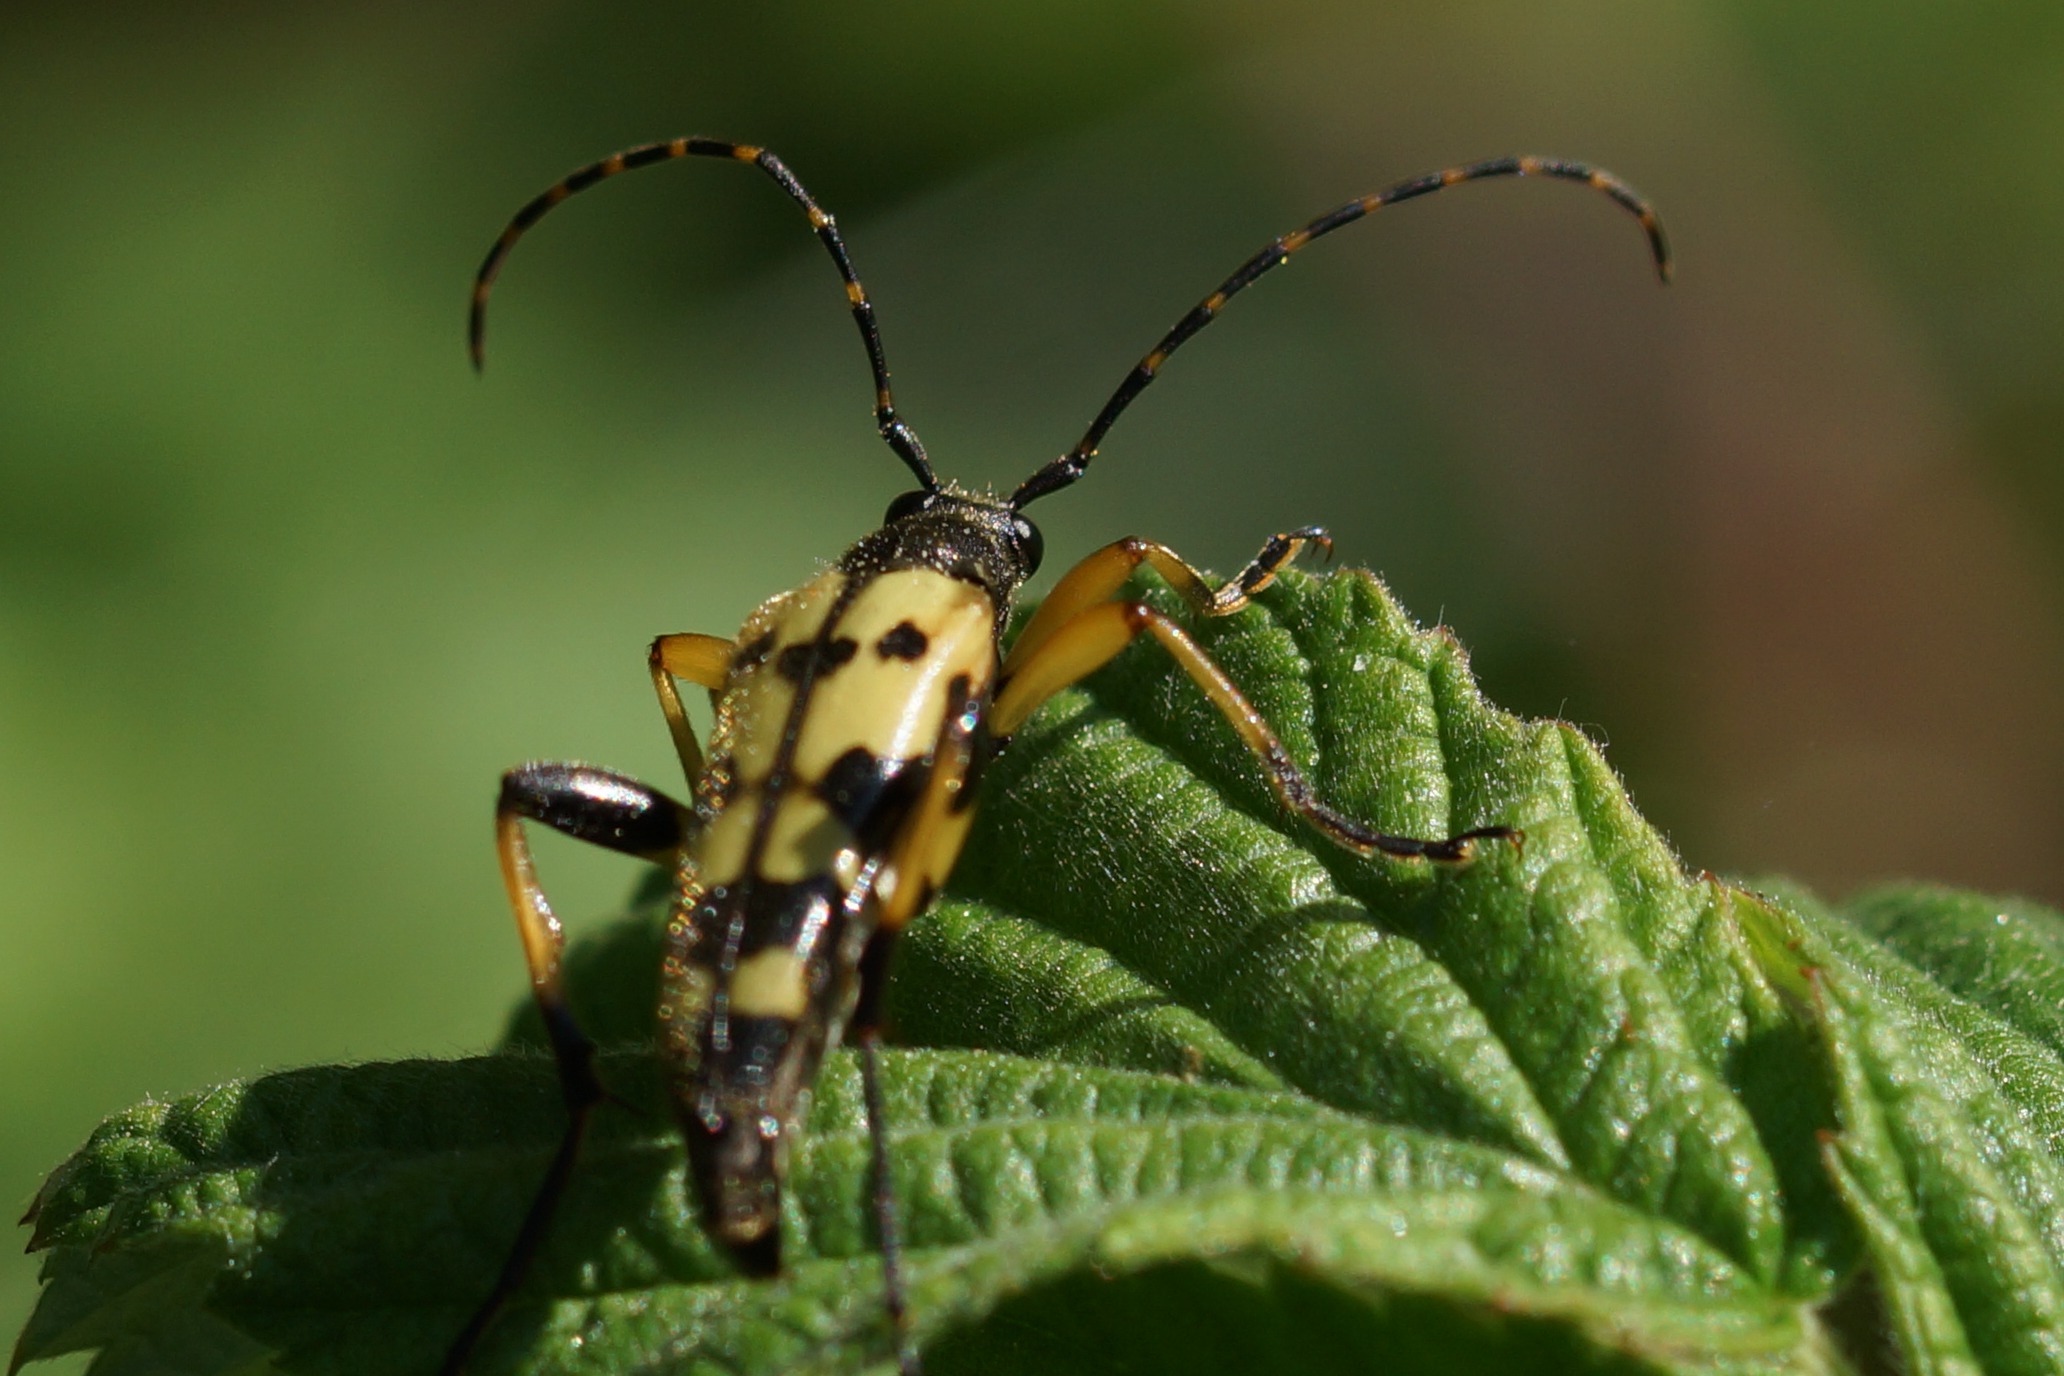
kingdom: Animalia
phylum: Arthropoda
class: Insecta
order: Coleoptera
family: Cerambycidae
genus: Rutpela
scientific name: Rutpela maculata
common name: Sydlig blomsterbuk
